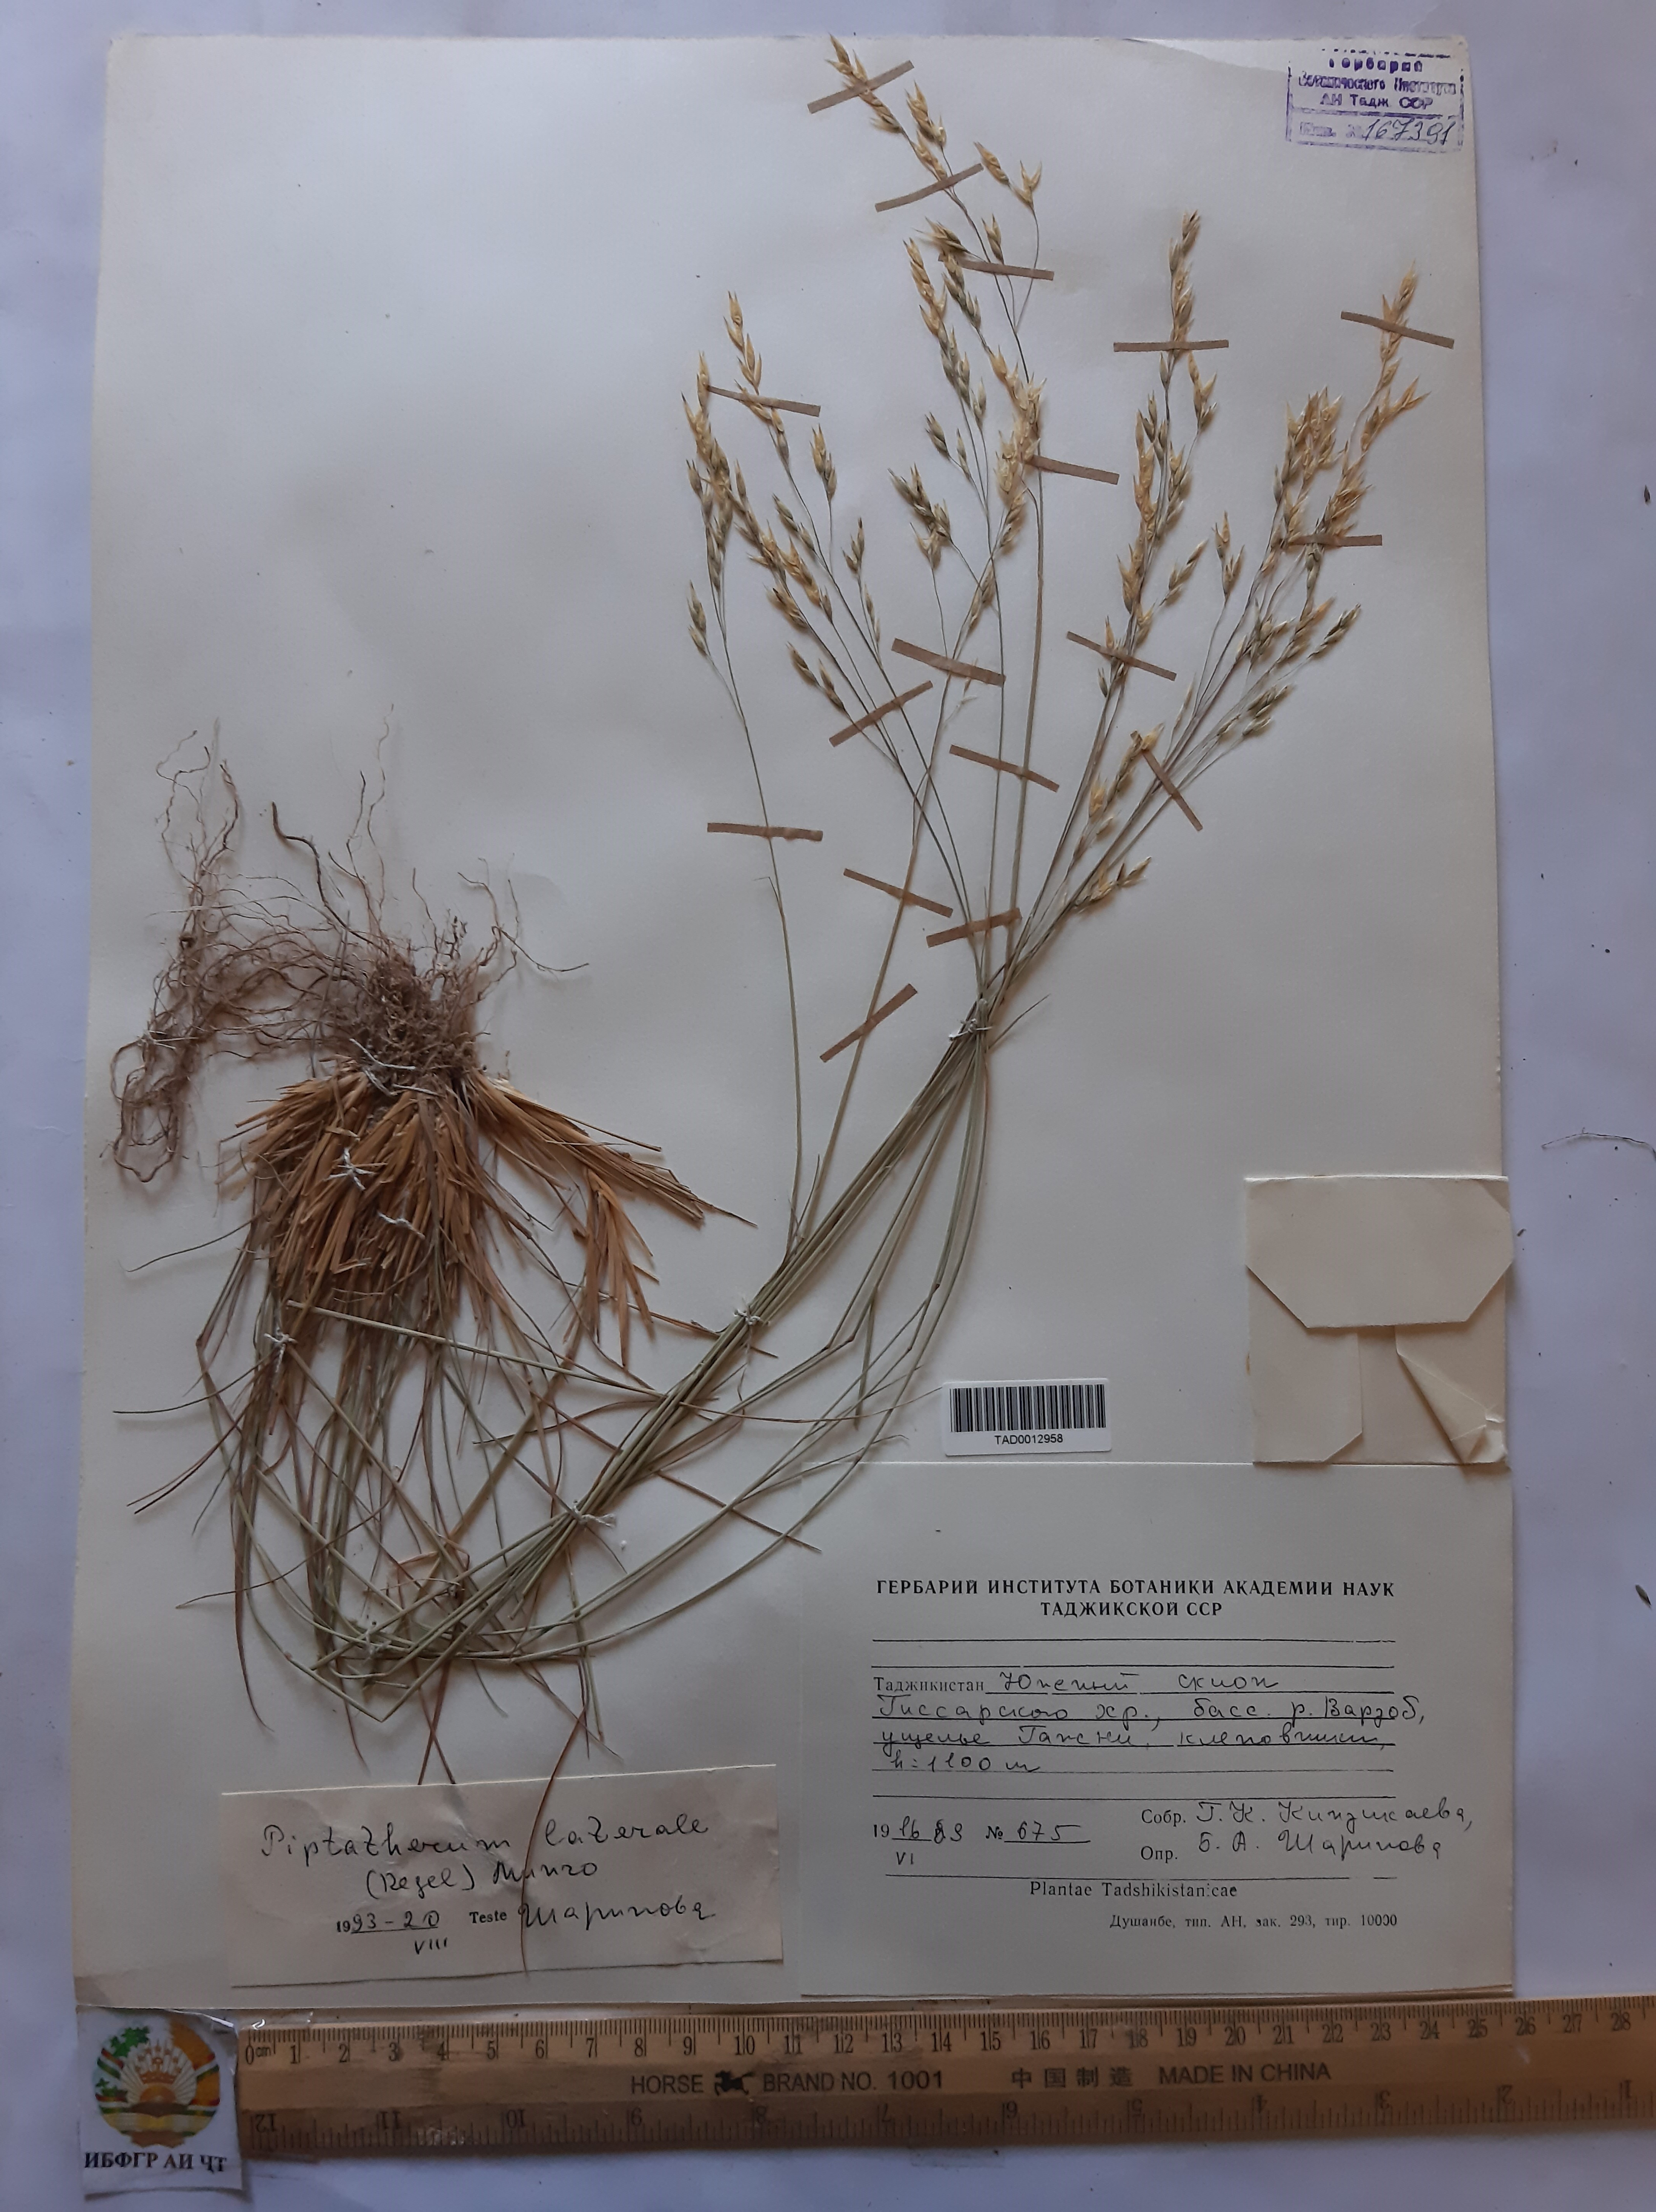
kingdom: Plantae
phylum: Tracheophyta
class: Liliopsida
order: Poales
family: Poaceae
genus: Piptatherum
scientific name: Piptatherum laterale
